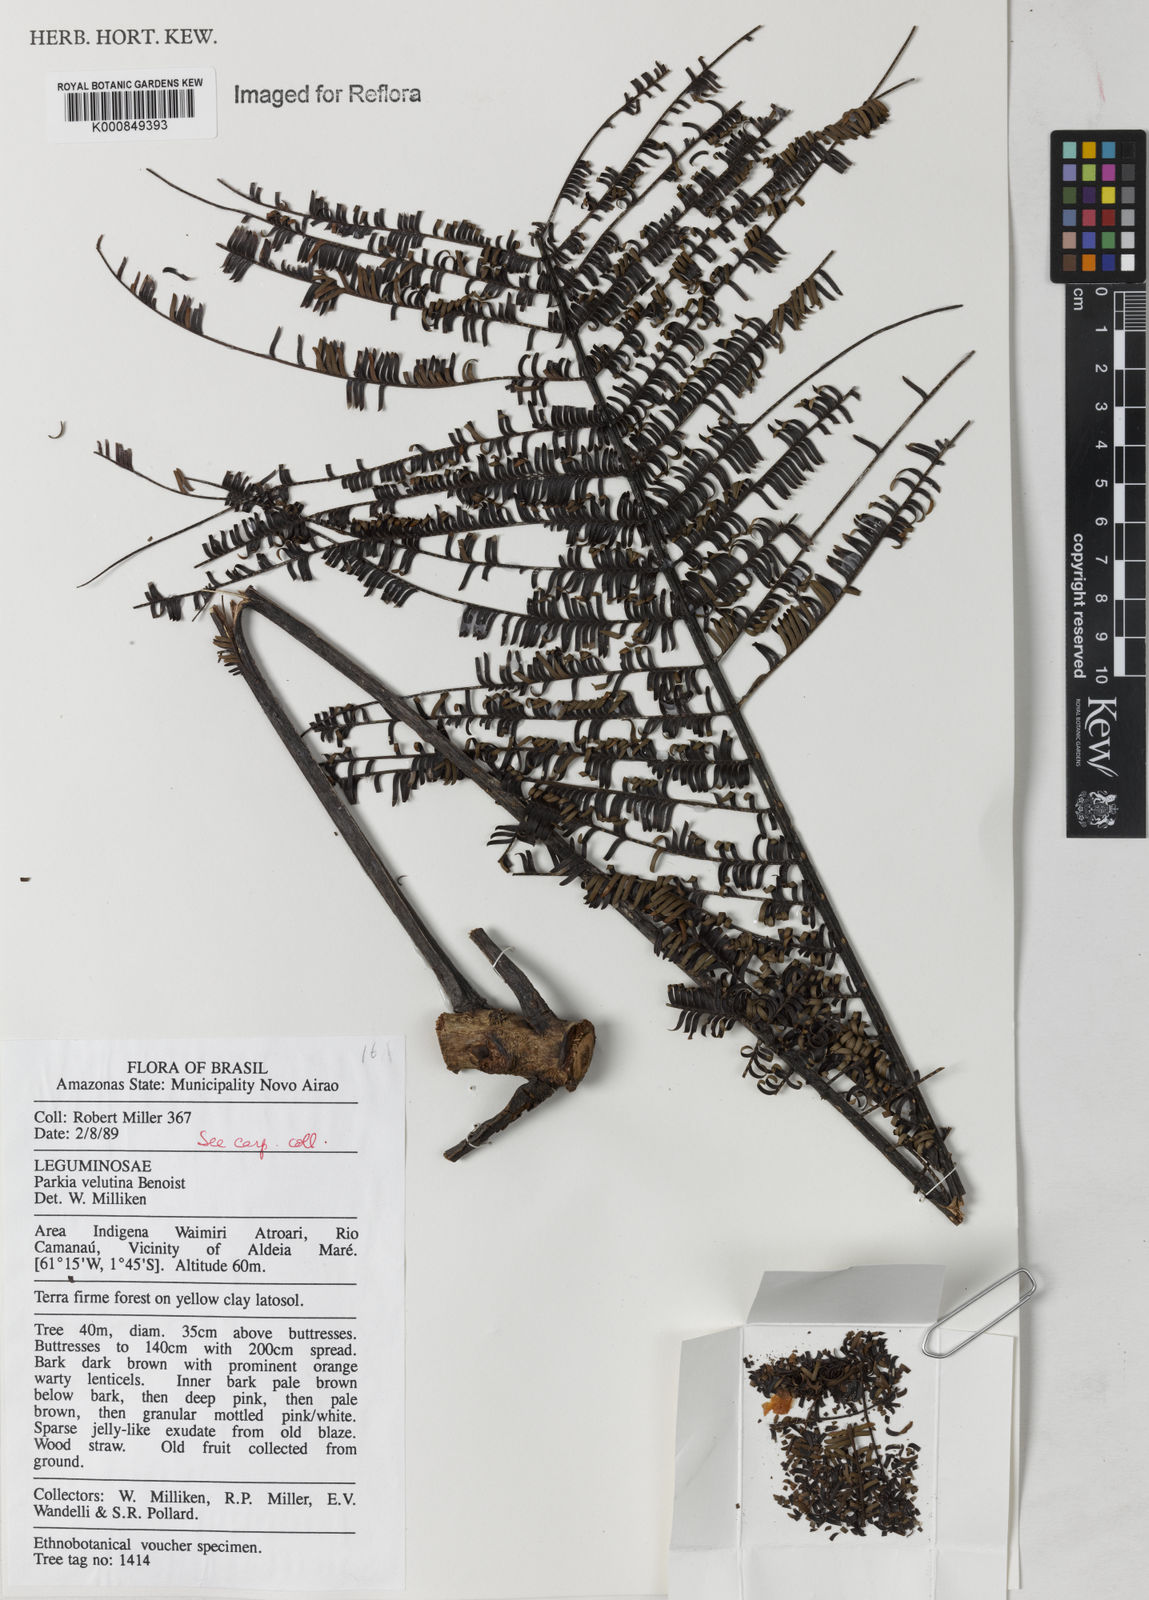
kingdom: Plantae
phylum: Tracheophyta
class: Magnoliopsida
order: Fabales
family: Fabaceae
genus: Parkia
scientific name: Parkia velutina
